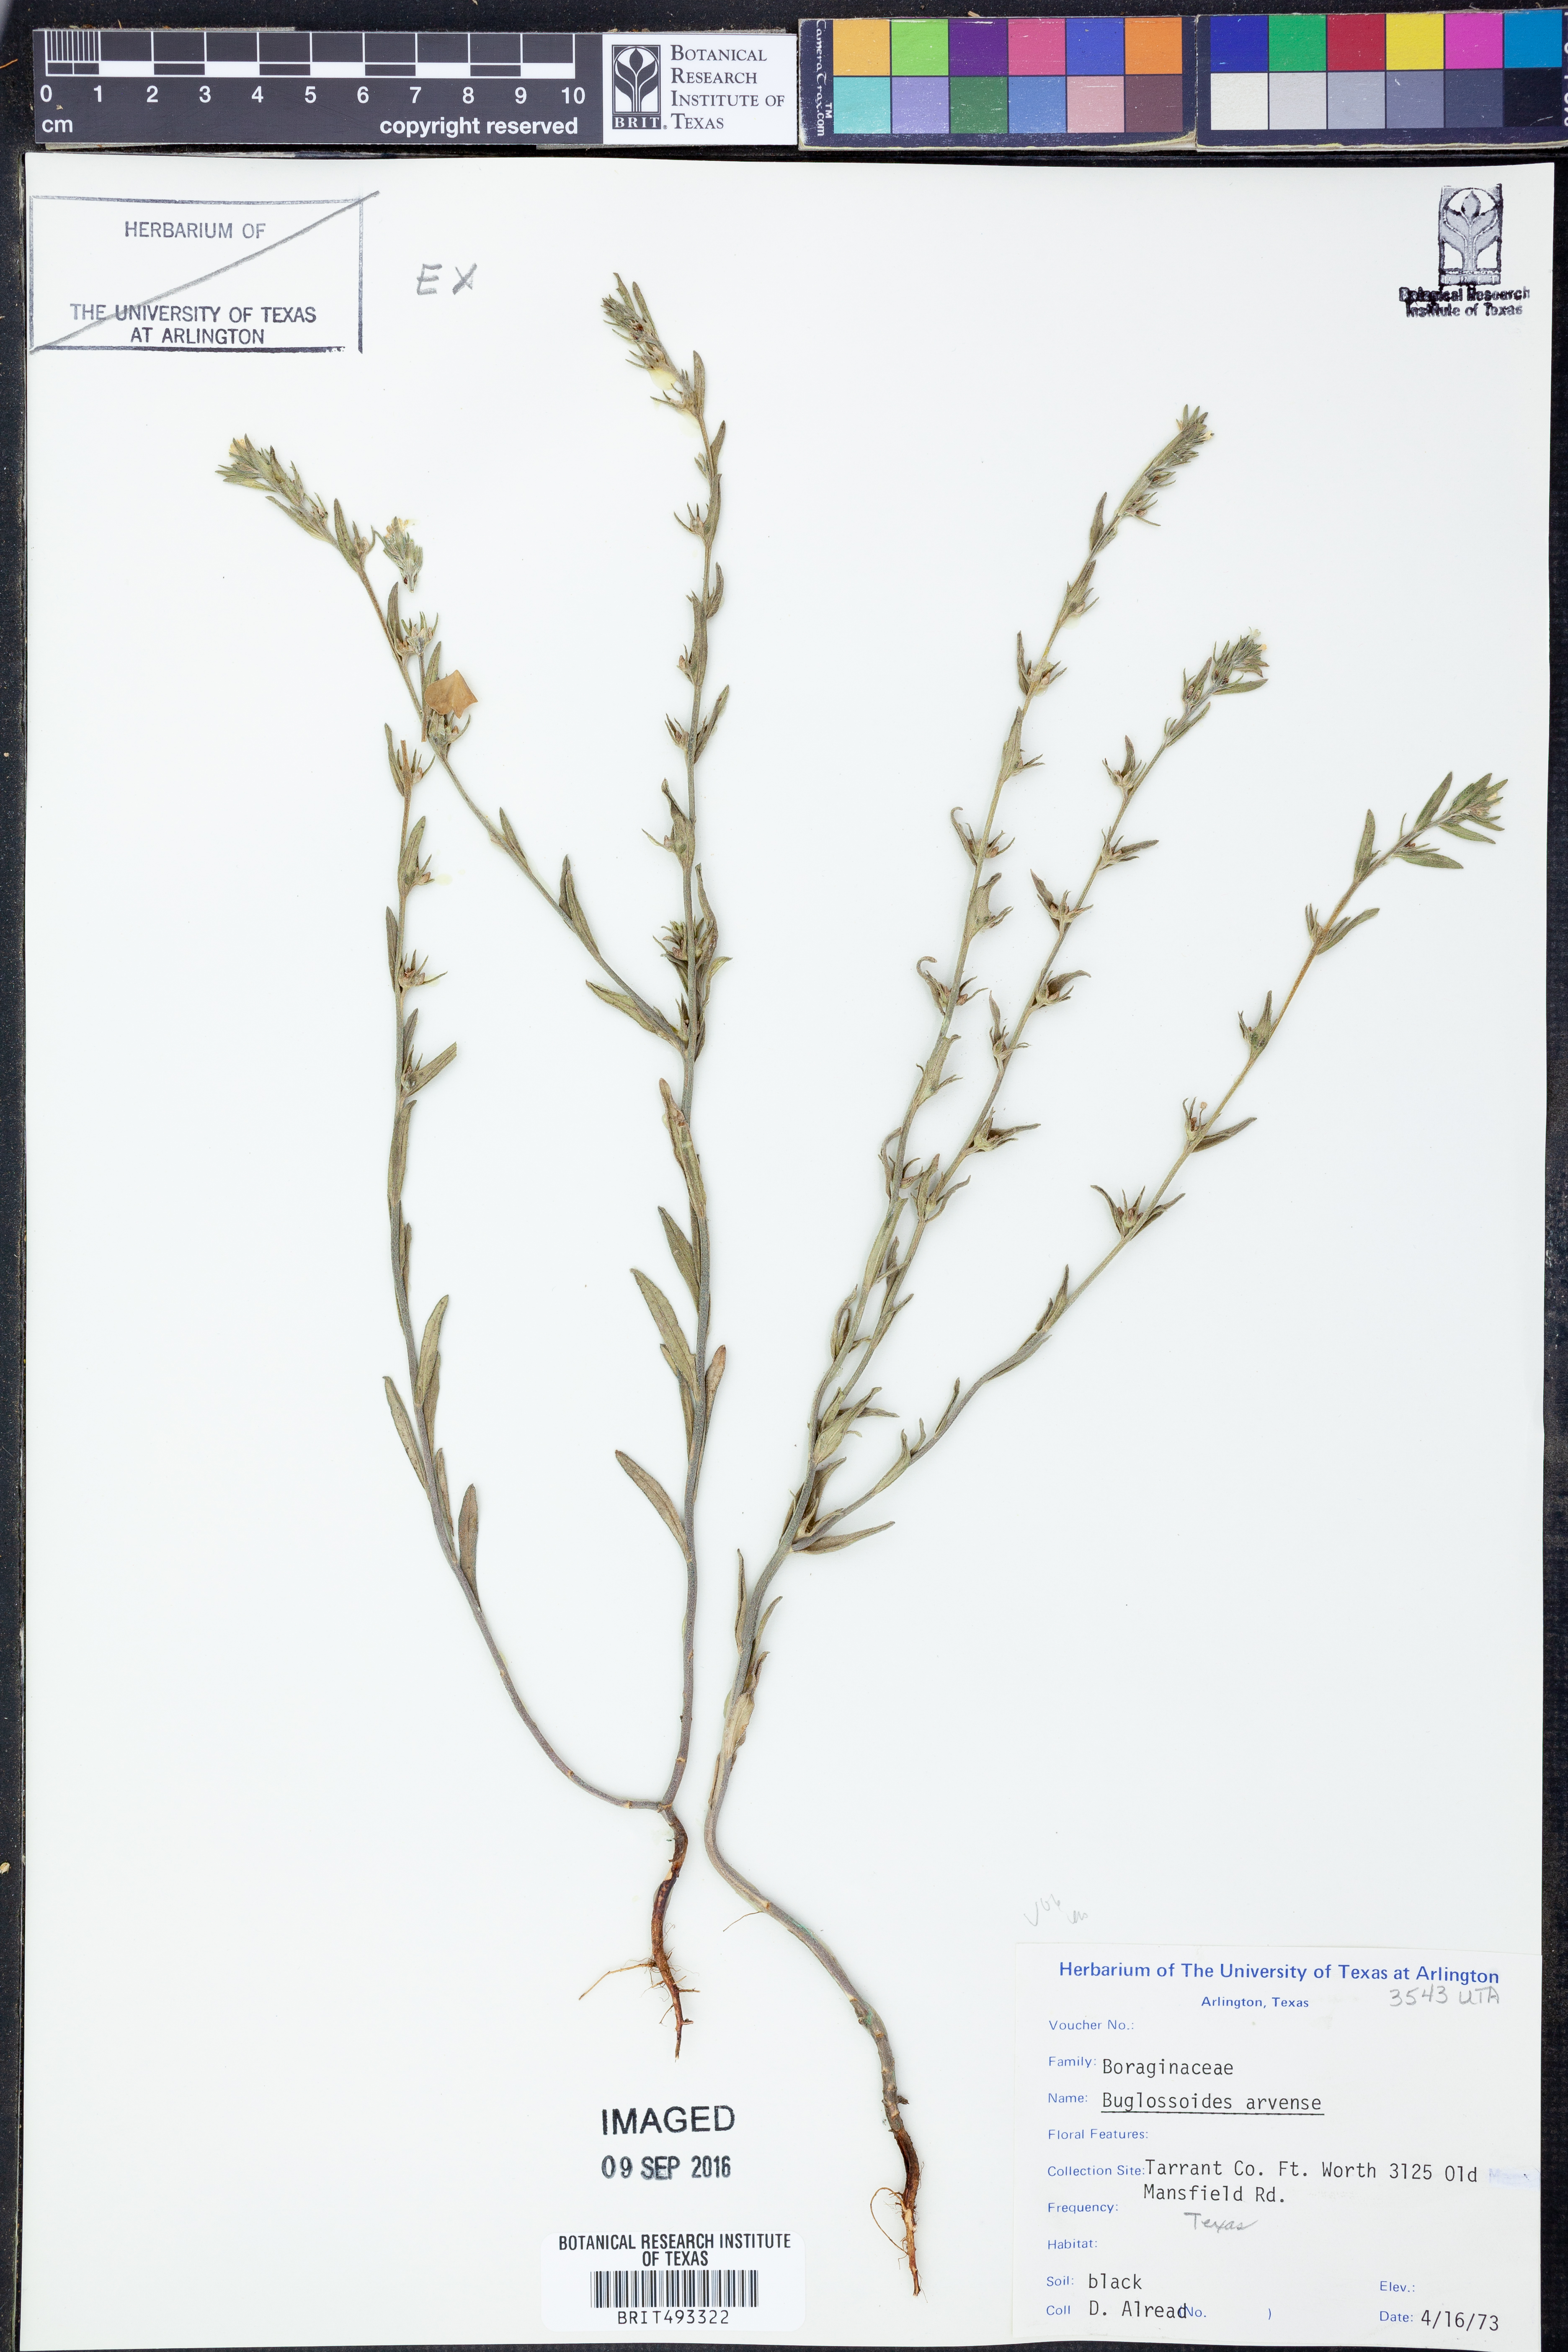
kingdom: Plantae
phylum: Tracheophyta
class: Magnoliopsida
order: Boraginales
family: Boraginaceae
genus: Buglossoides
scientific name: Buglossoides arvensis
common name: Corn gromwell
